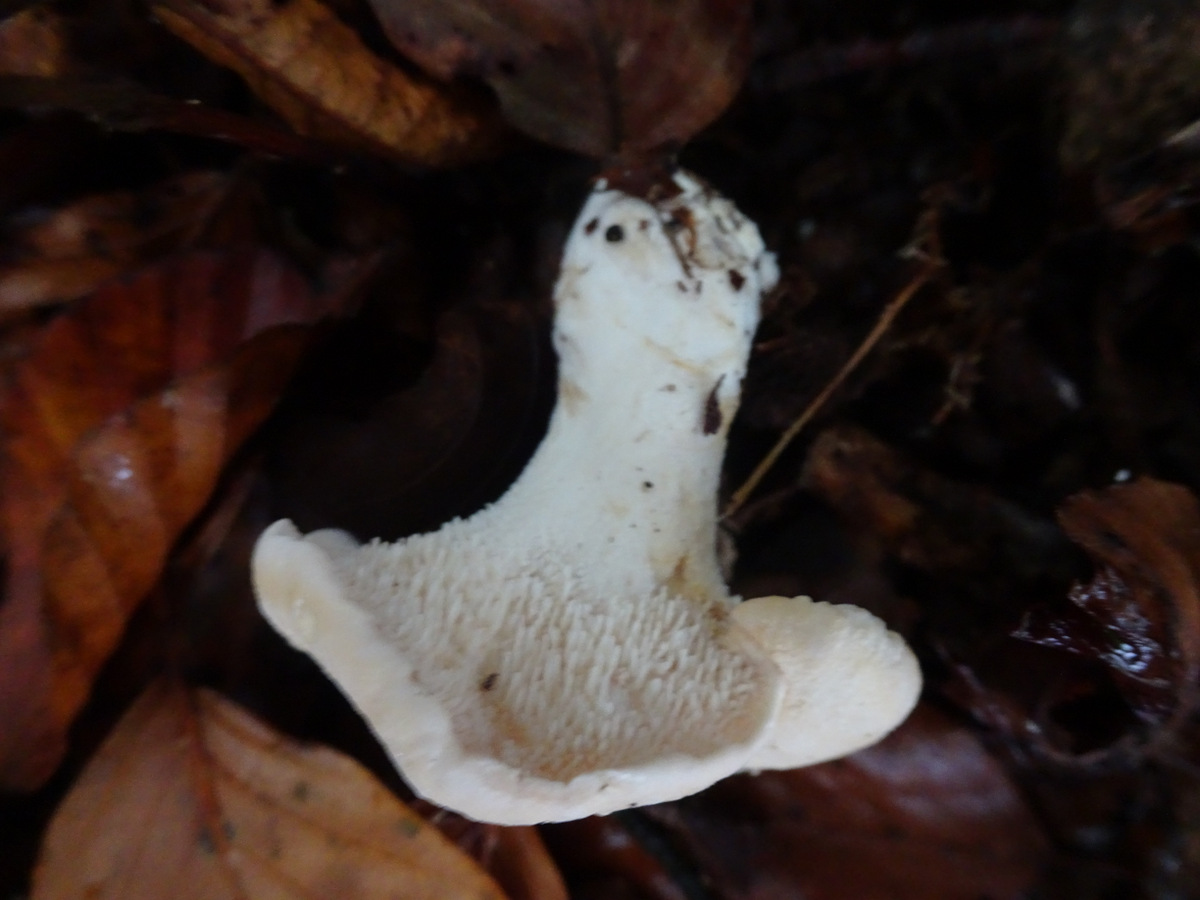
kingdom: Fungi
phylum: Basidiomycota
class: Agaricomycetes
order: Cantharellales
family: Hydnaceae
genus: Hydnum
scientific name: Hydnum repandum
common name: almindelig pigsvamp
